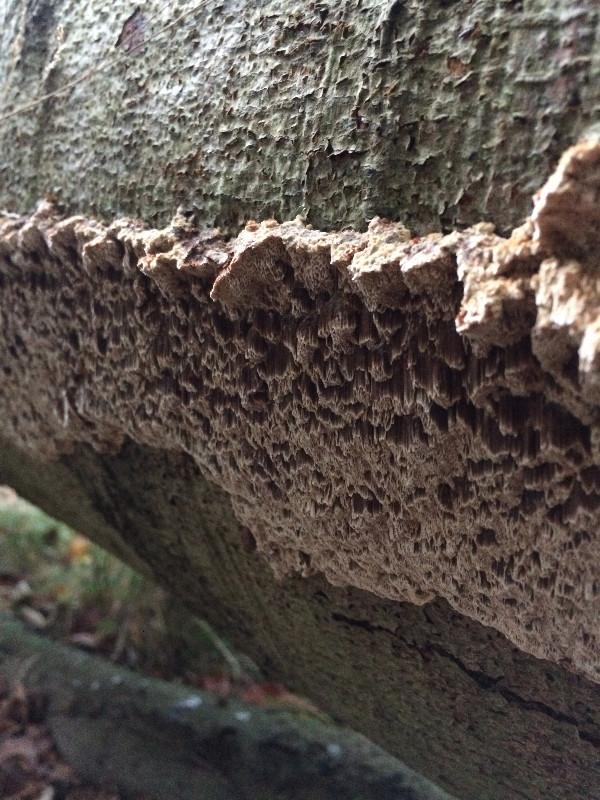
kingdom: Fungi
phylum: Basidiomycota
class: Agaricomycetes
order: Hymenochaetales
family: Hymenochaetaceae
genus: Mensularia
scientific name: Mensularia nodulosa
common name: bøge-spejlporesvamp
